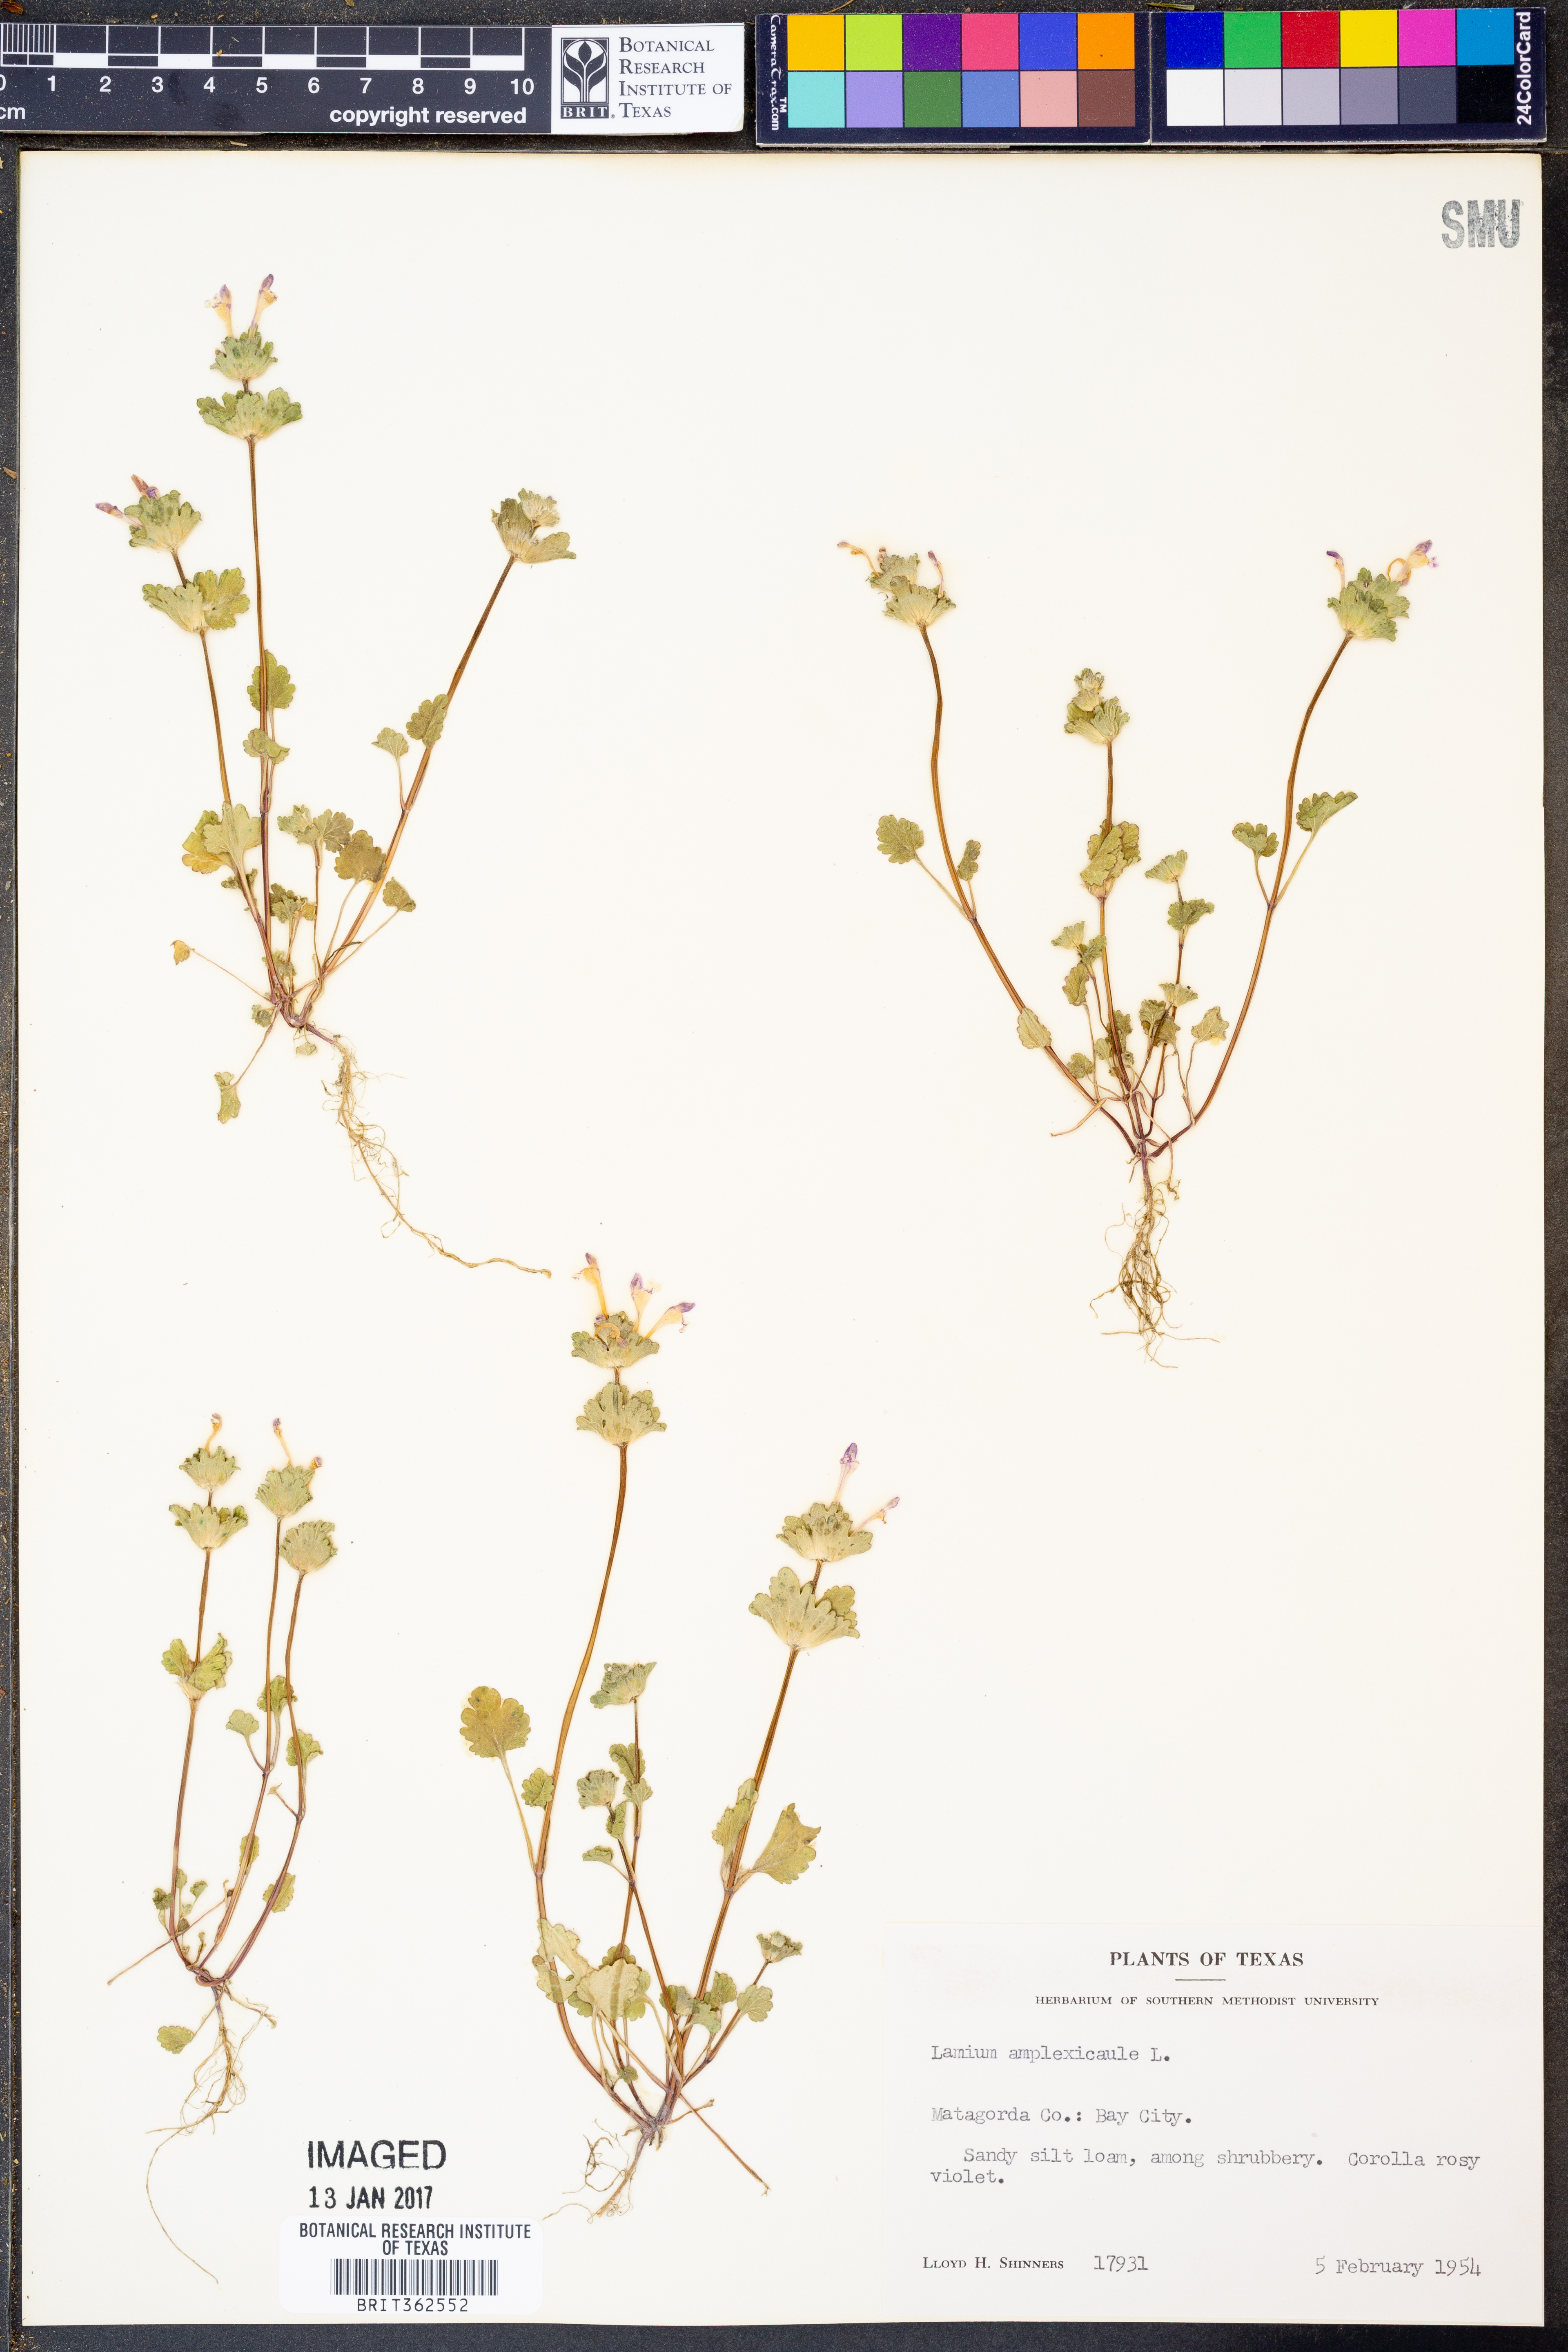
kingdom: Plantae
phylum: Tracheophyta
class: Magnoliopsida
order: Lamiales
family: Lamiaceae
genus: Lamium
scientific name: Lamium amplexicaule
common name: Henbit dead-nettle
